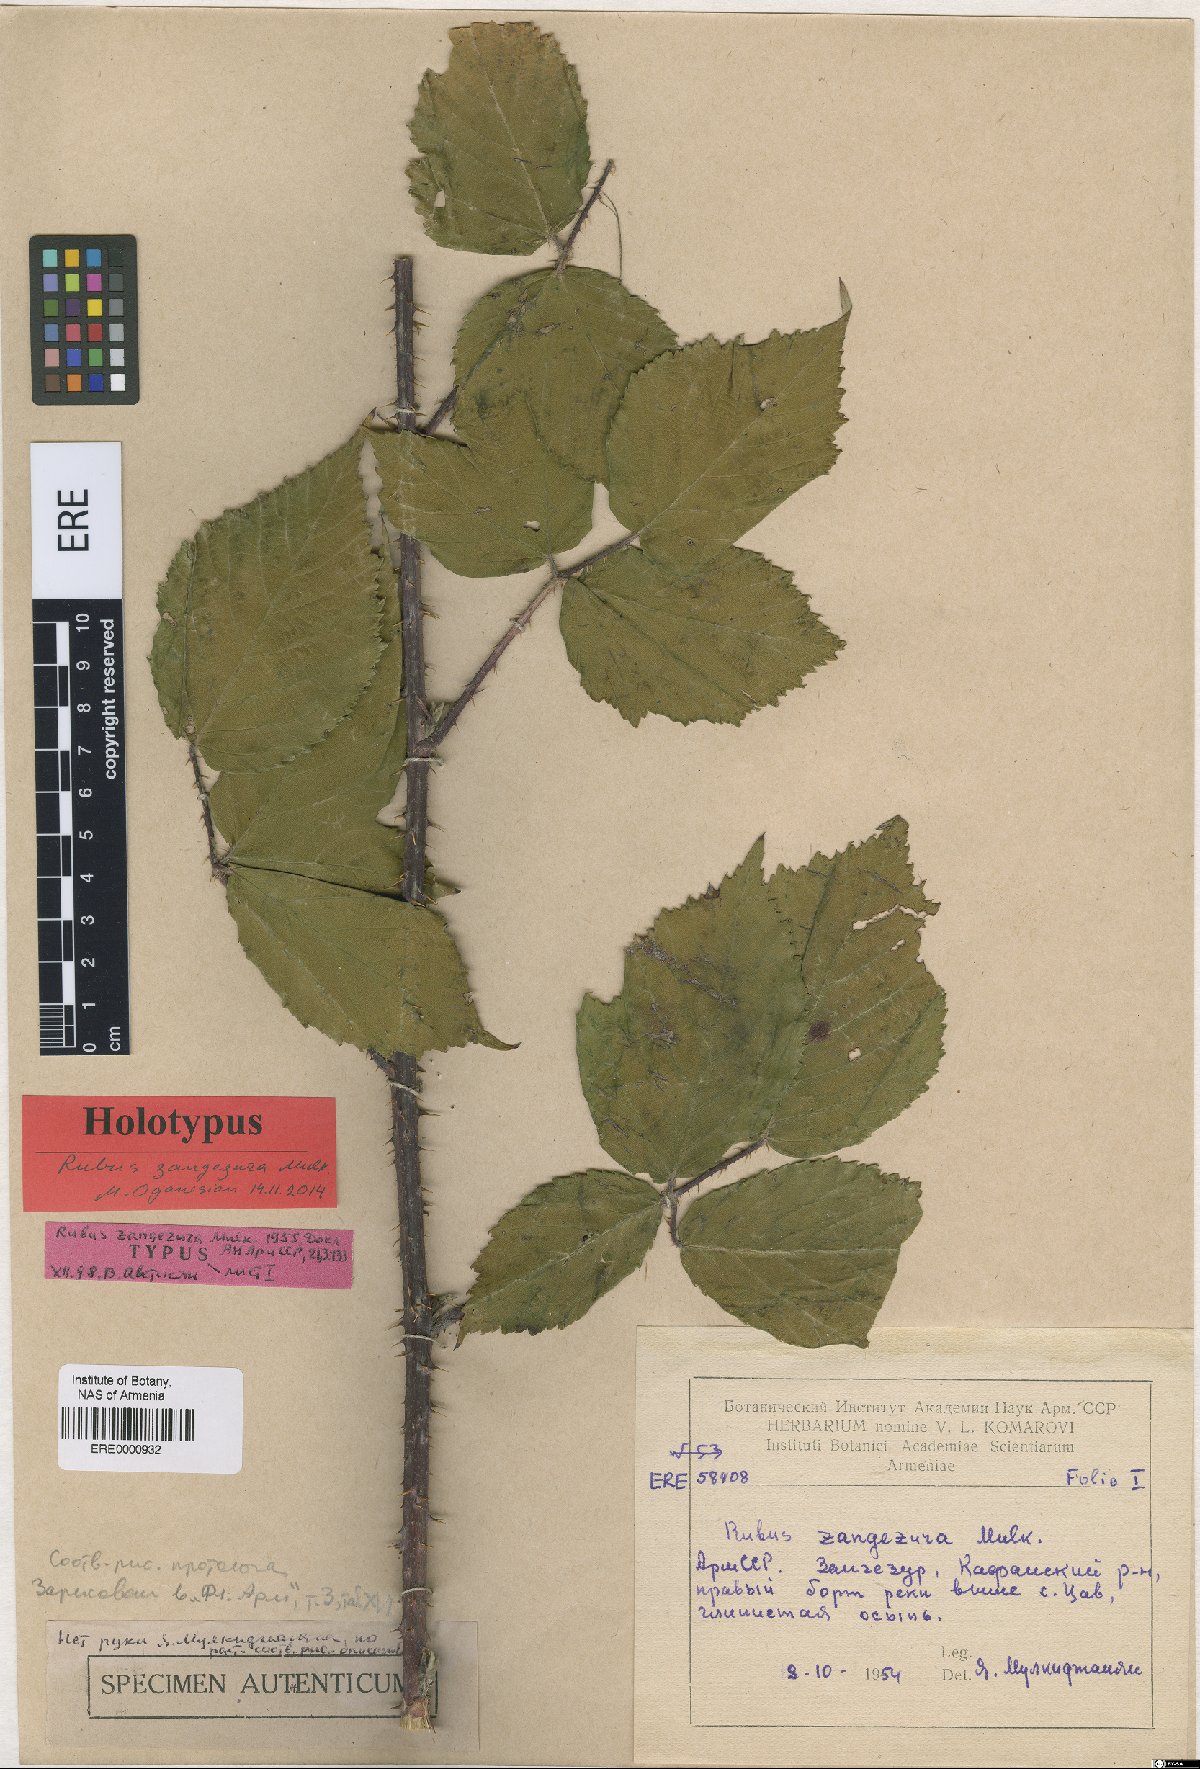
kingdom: Plantae
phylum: Tracheophyta
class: Magnoliopsida
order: Rosales
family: Rosaceae
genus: Rubus
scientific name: Rubus zangezurus
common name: Zangezurian blackberry
